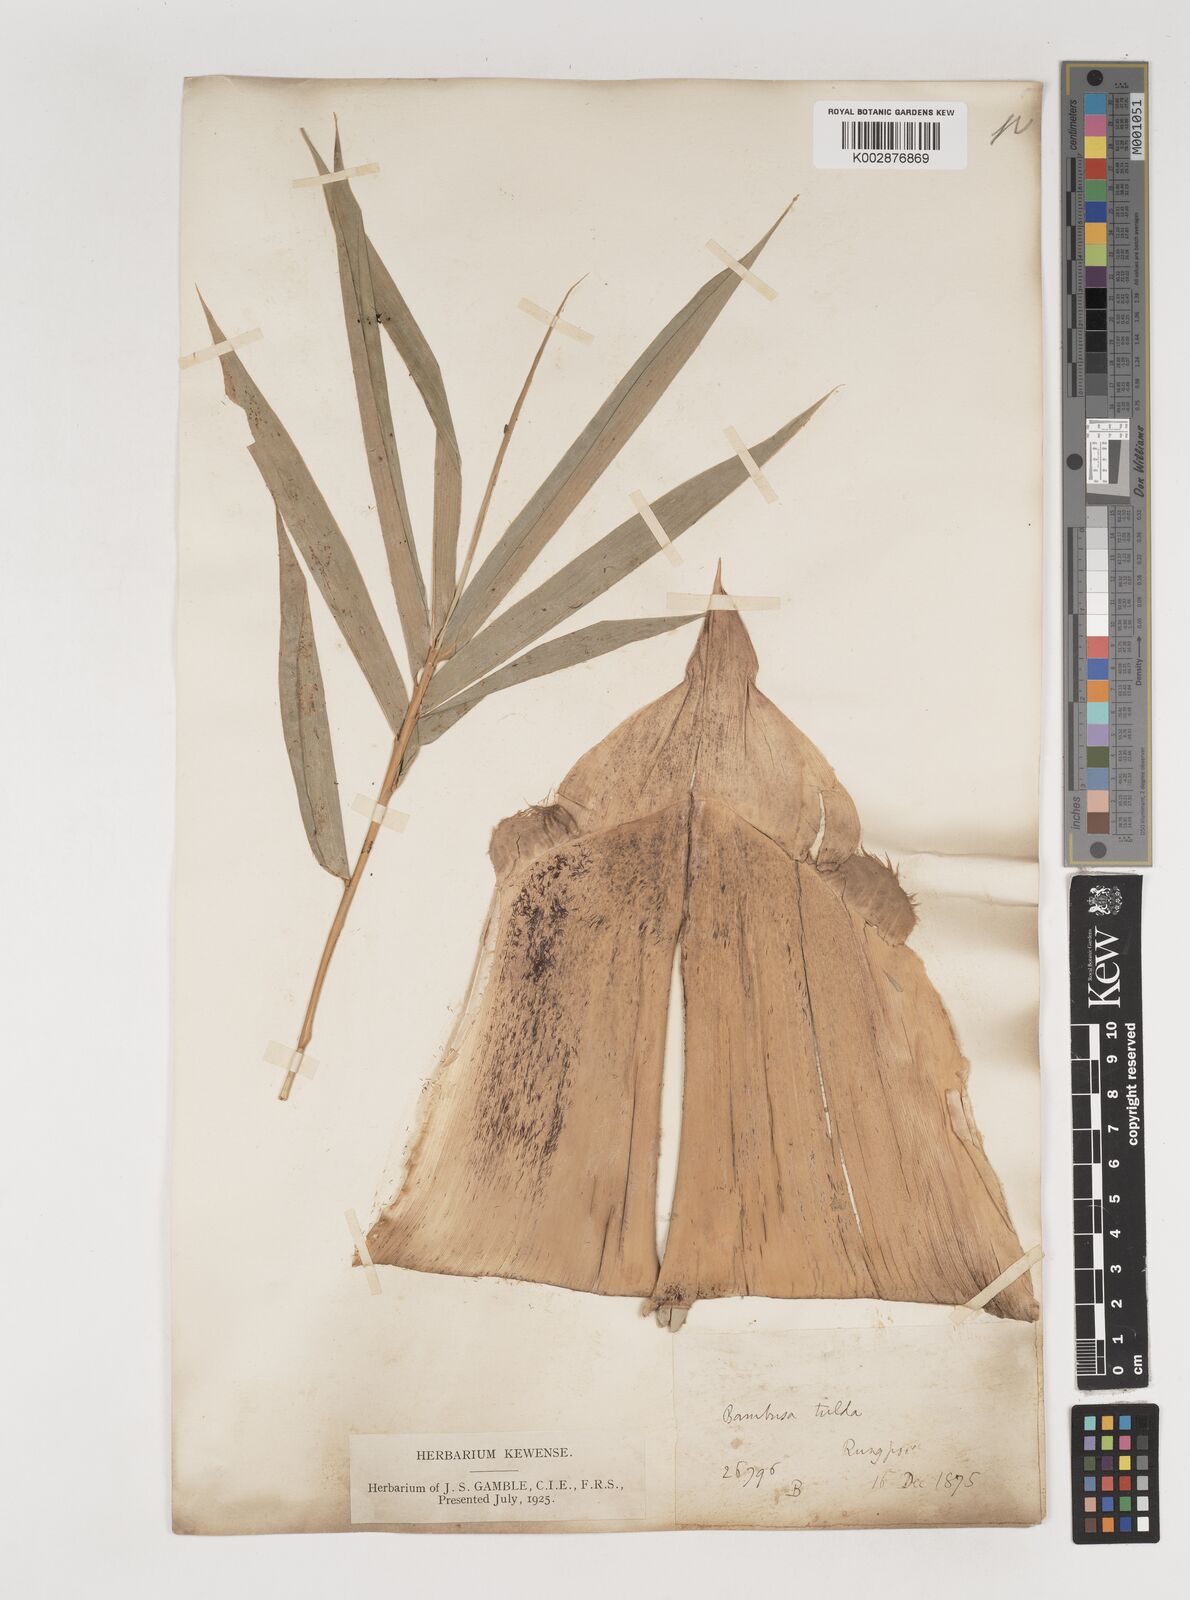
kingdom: Plantae
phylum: Tracheophyta
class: Liliopsida
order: Poales
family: Poaceae
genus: Bambusa
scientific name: Bambusa tuldoides
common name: Verdant bamboo
